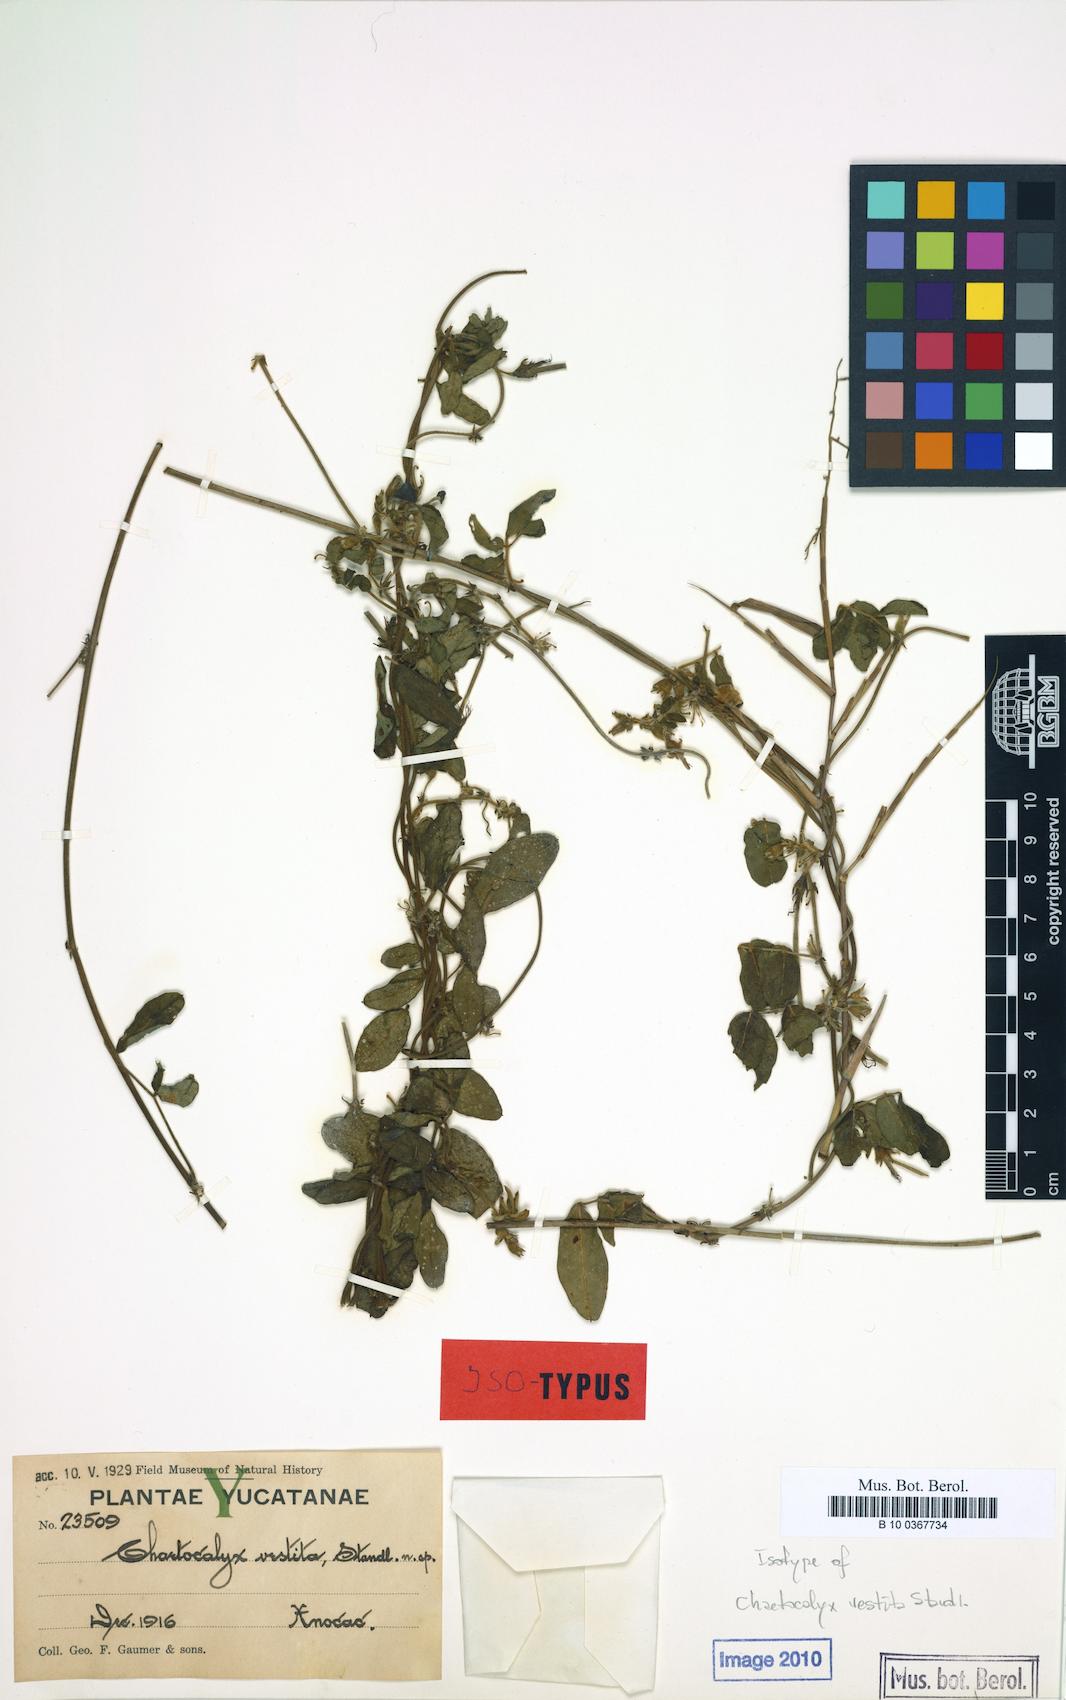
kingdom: Plantae
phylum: Tracheophyta
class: Magnoliopsida
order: Fabales
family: Fabaceae
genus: Nissolia
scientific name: Nissolia vincentina
